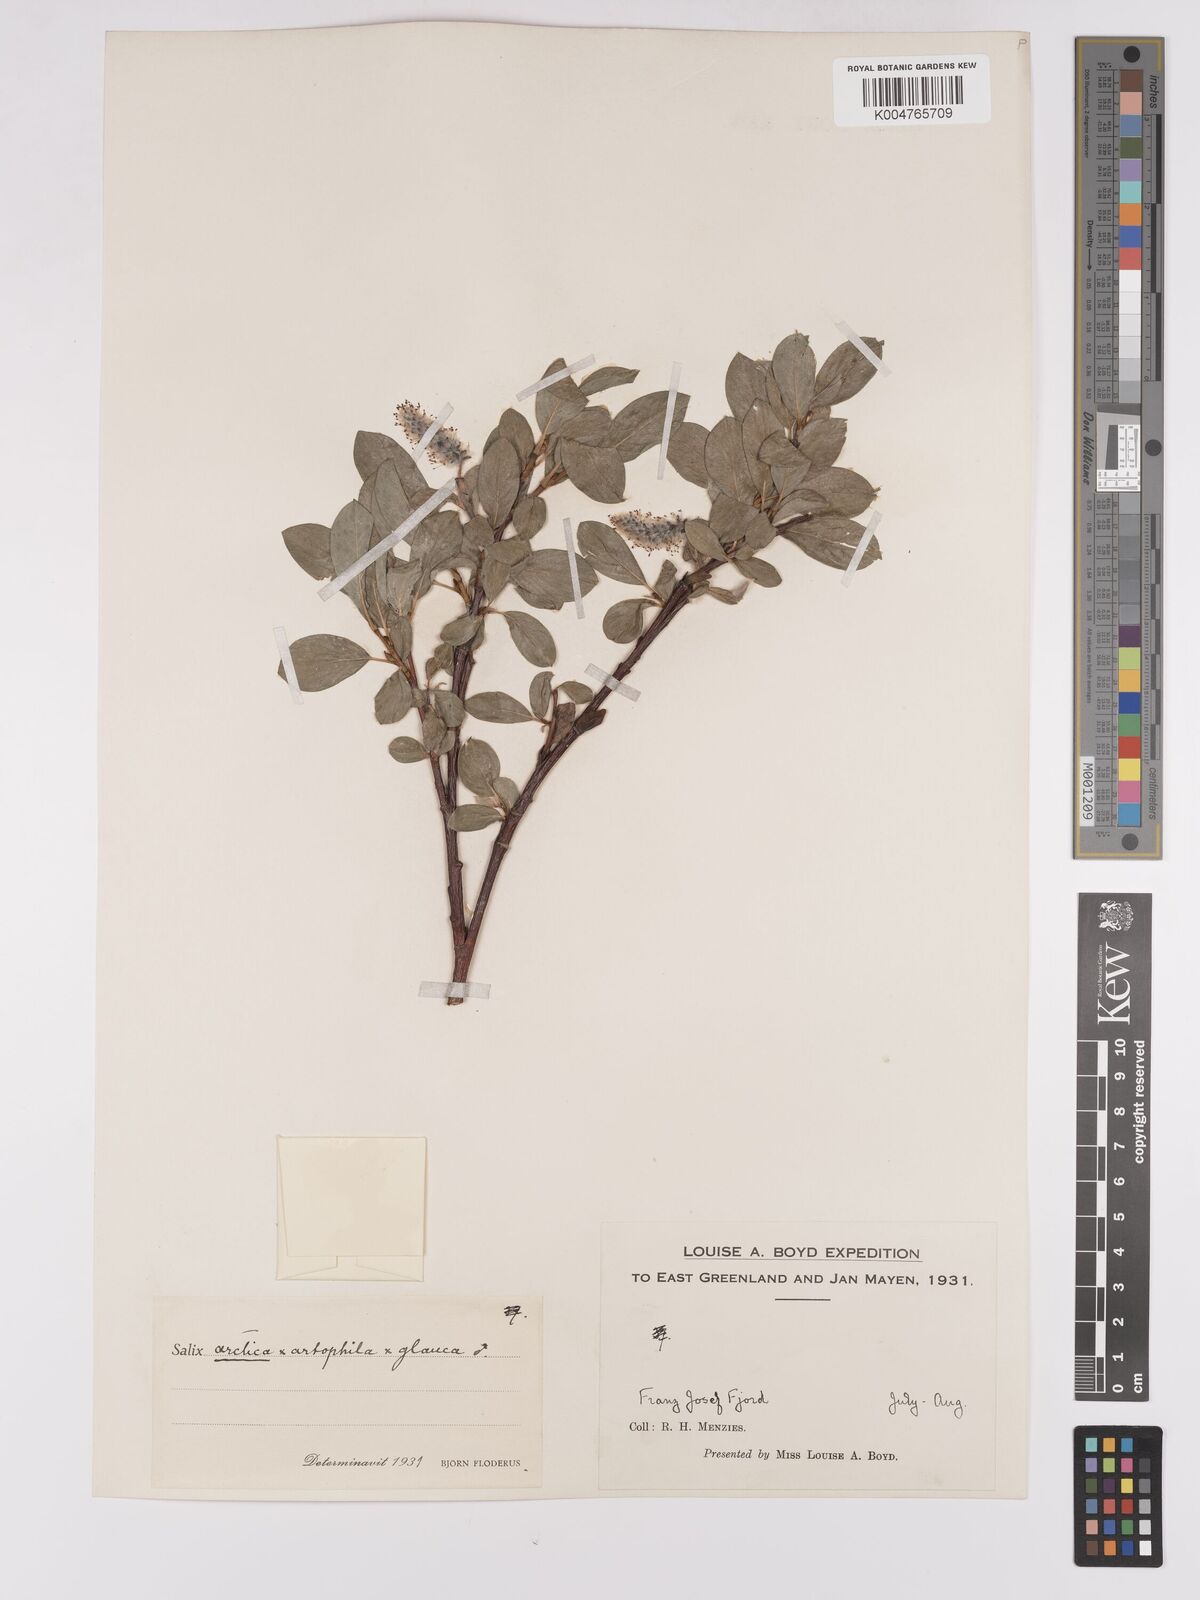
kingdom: Plantae
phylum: Tracheophyta
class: Magnoliopsida
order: Malpighiales
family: Salicaceae
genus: Salix
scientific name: Salix arctophila
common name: Greenland willow
